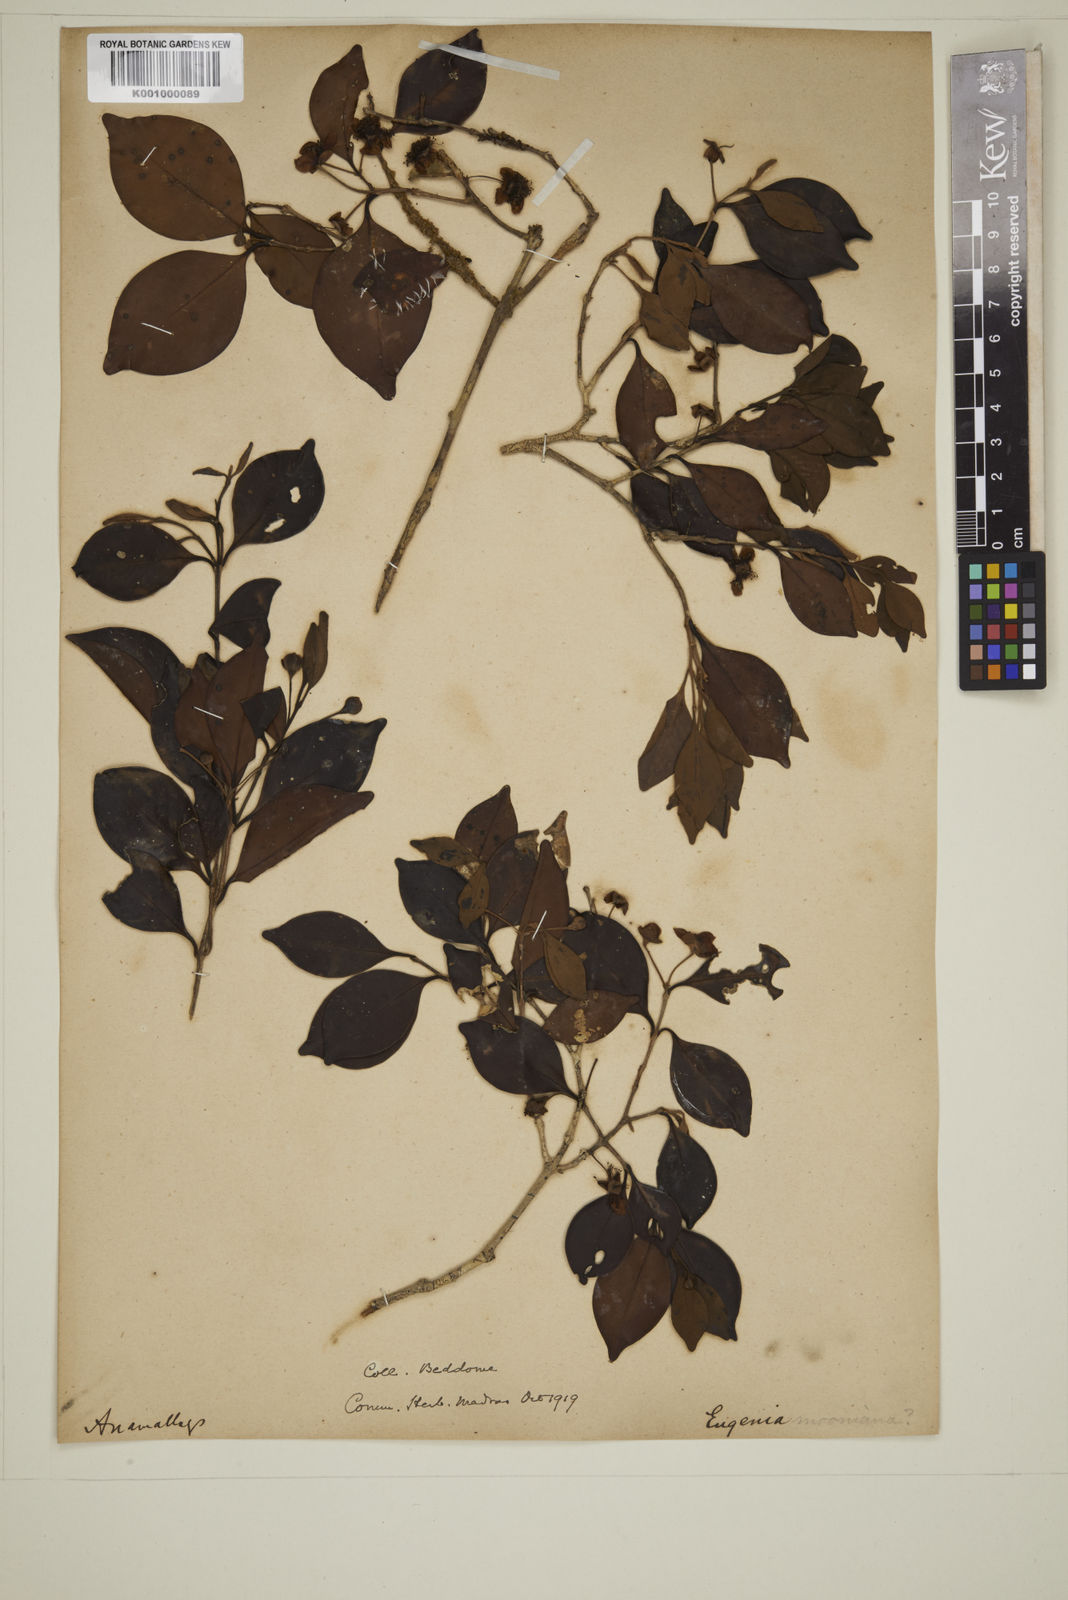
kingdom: Plantae
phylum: Tracheophyta
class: Magnoliopsida
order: Myrtales
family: Myrtaceae
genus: Eugenia
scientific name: Eugenia thwaitesii
